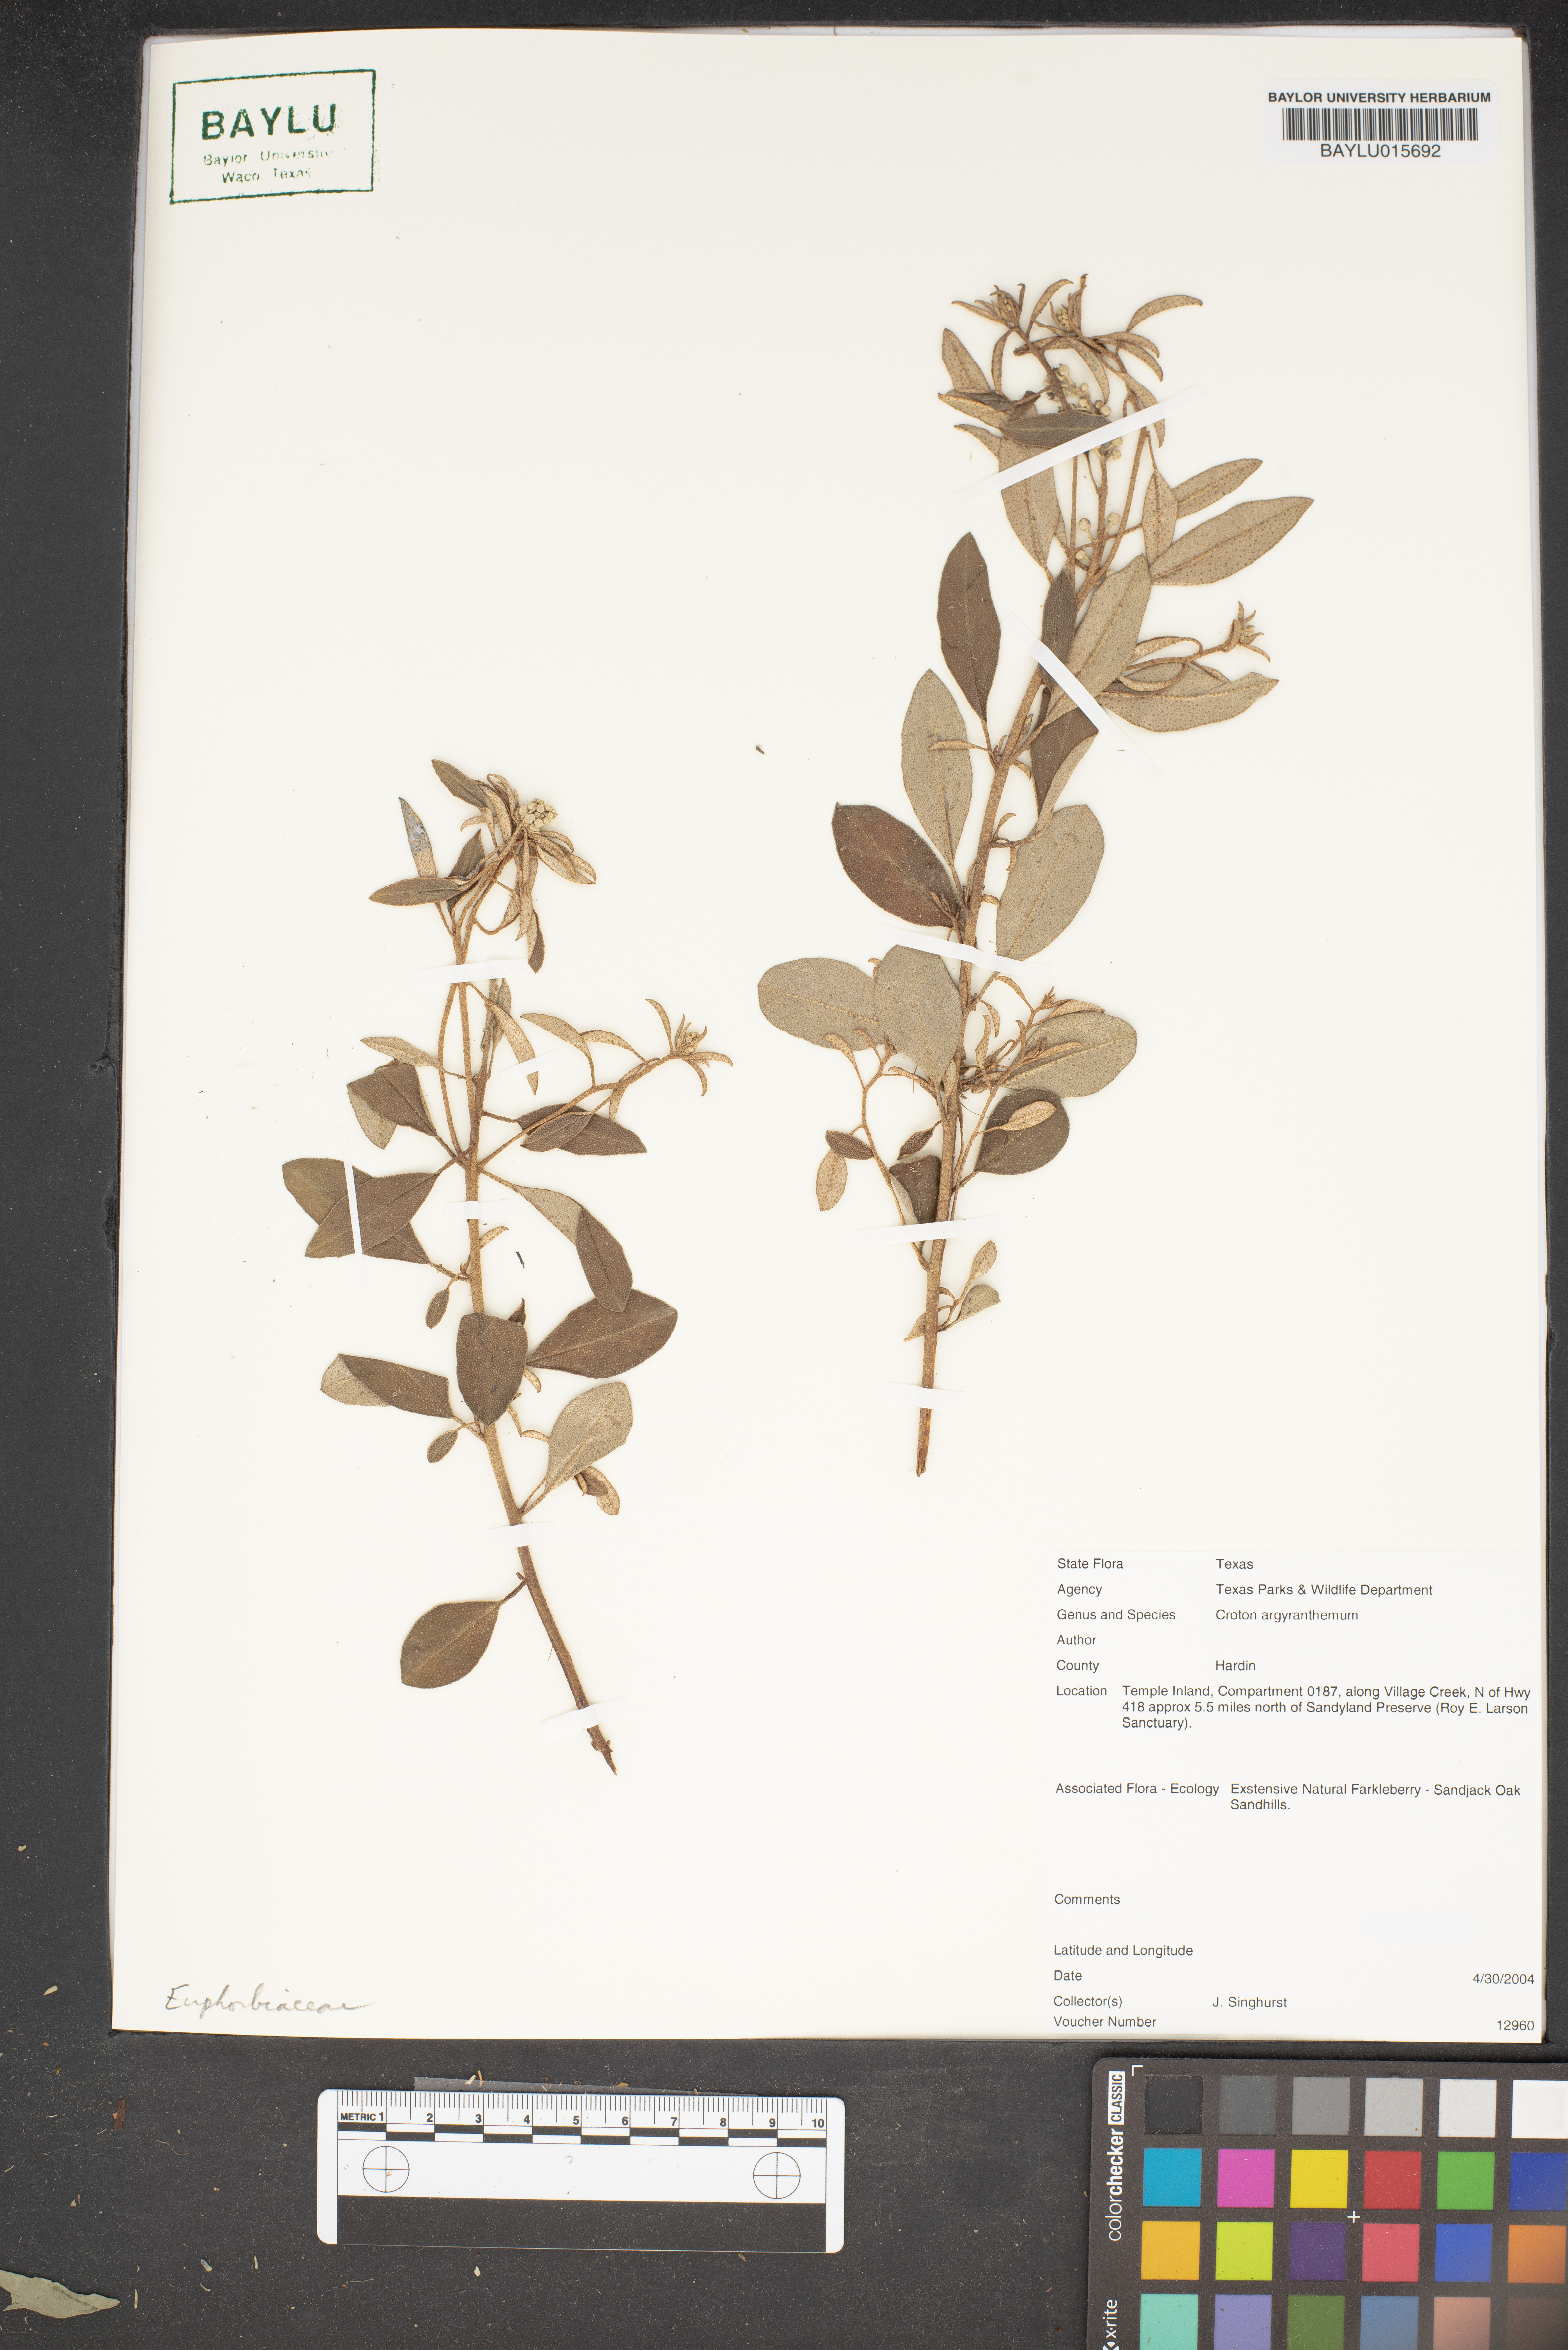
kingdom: Plantae
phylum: Tracheophyta
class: Magnoliopsida
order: Malpighiales
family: Euphorbiaceae
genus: Croton
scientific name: Croton argyranthemus
